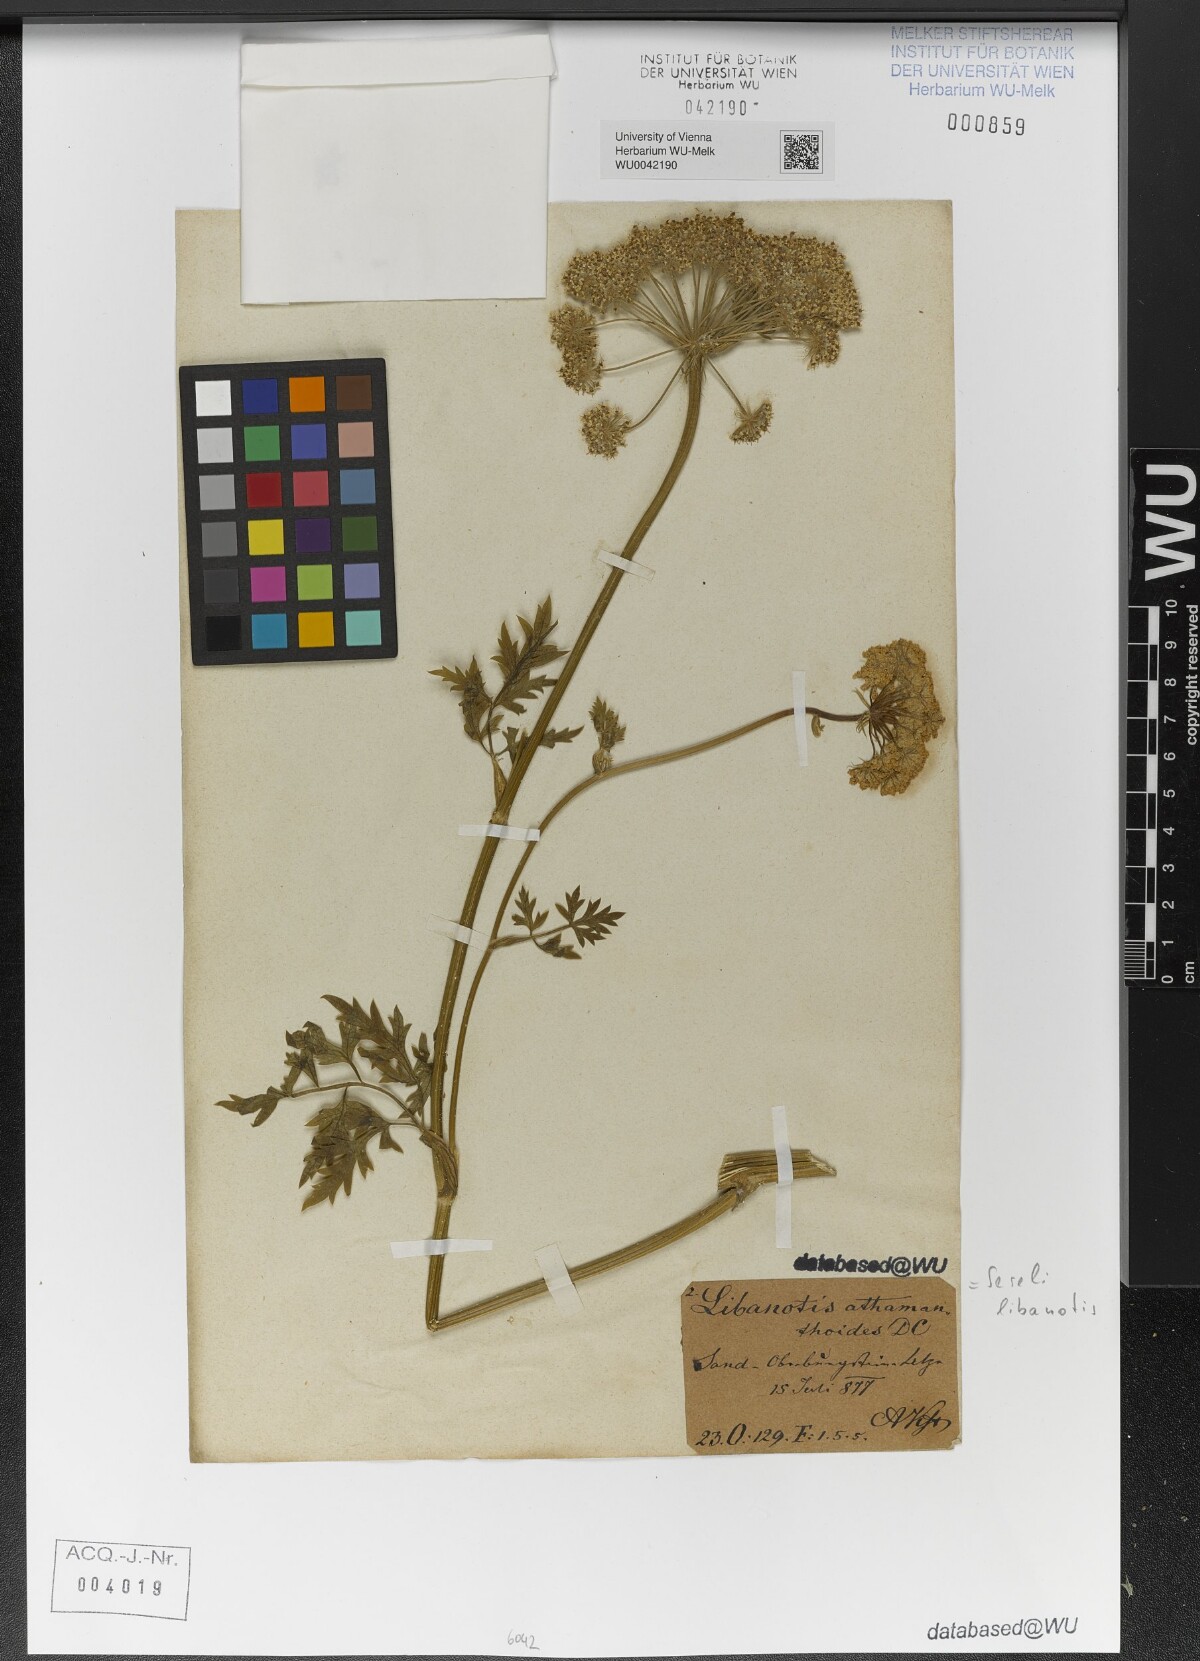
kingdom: Plantae
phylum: Tracheophyta
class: Magnoliopsida
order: Apiales
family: Apiaceae
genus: Seseli
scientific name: Seseli libanotis
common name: Mooncarrot
